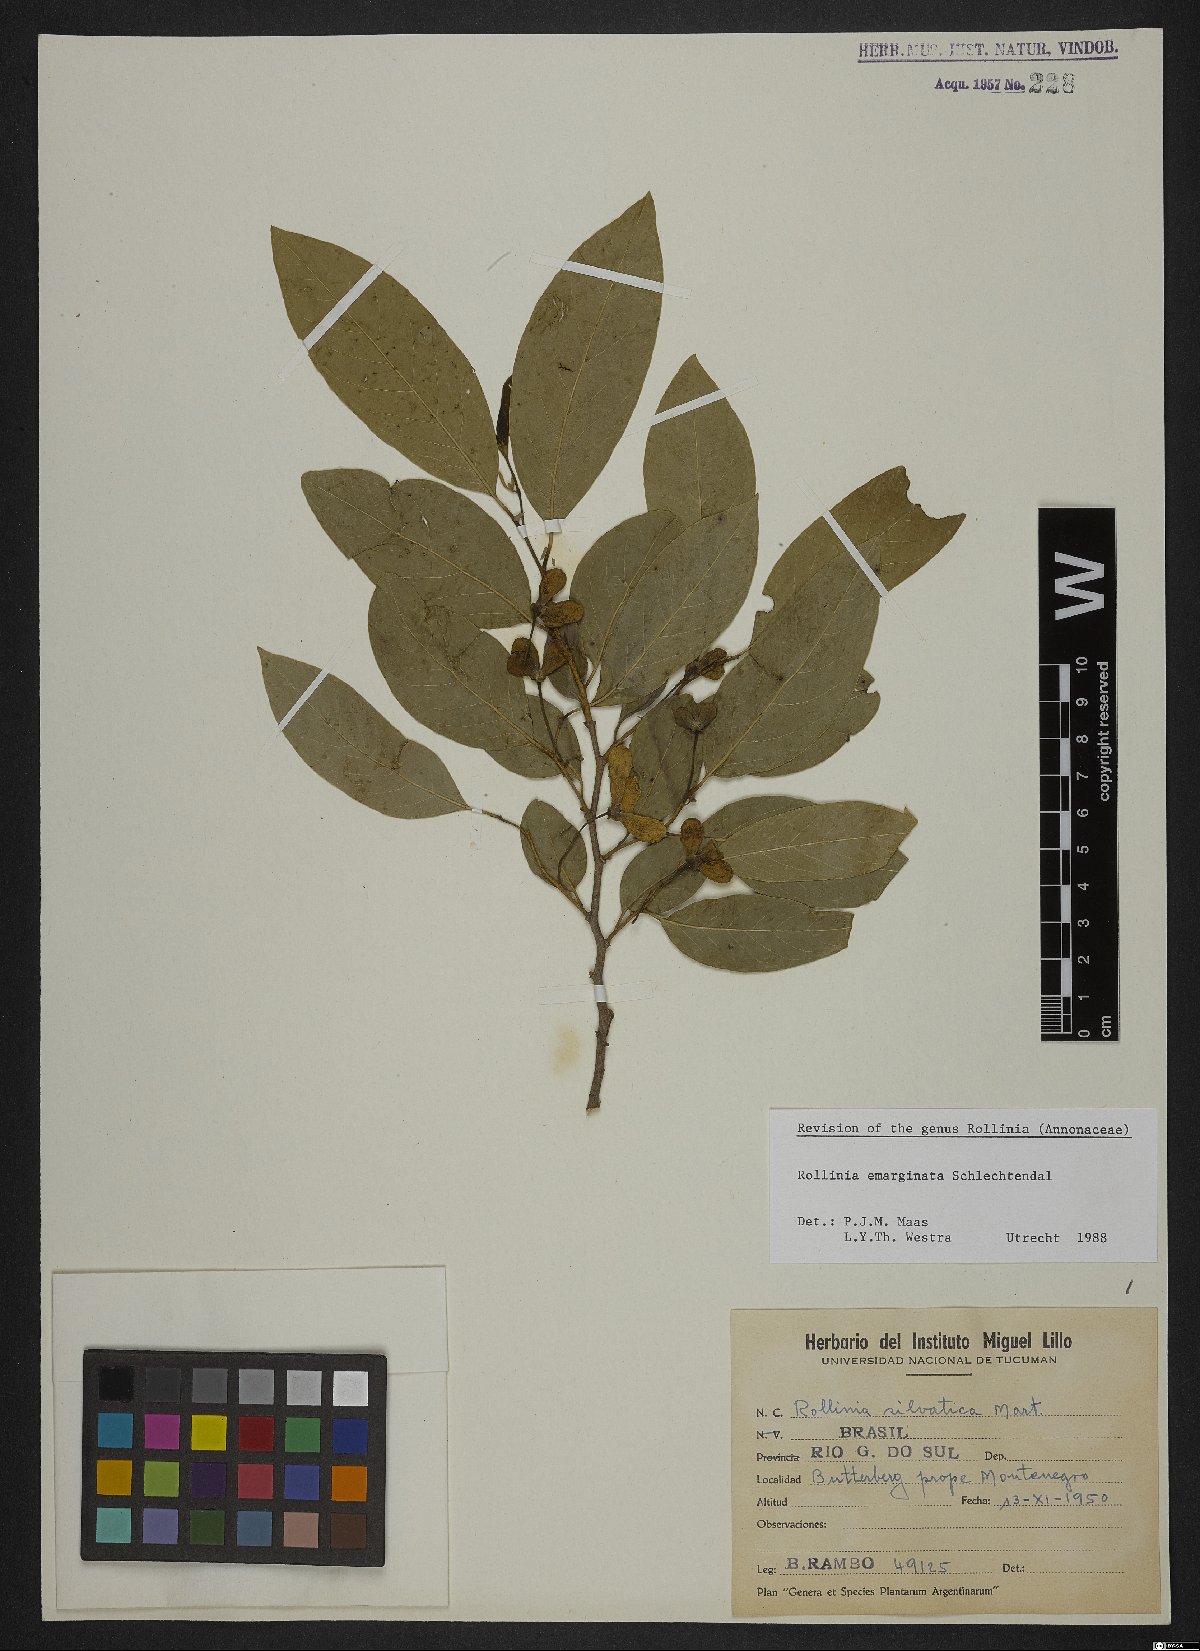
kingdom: Plantae
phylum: Tracheophyta
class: Magnoliopsida
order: Magnoliales
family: Annonaceae
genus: Annona
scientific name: Annona emarginata
